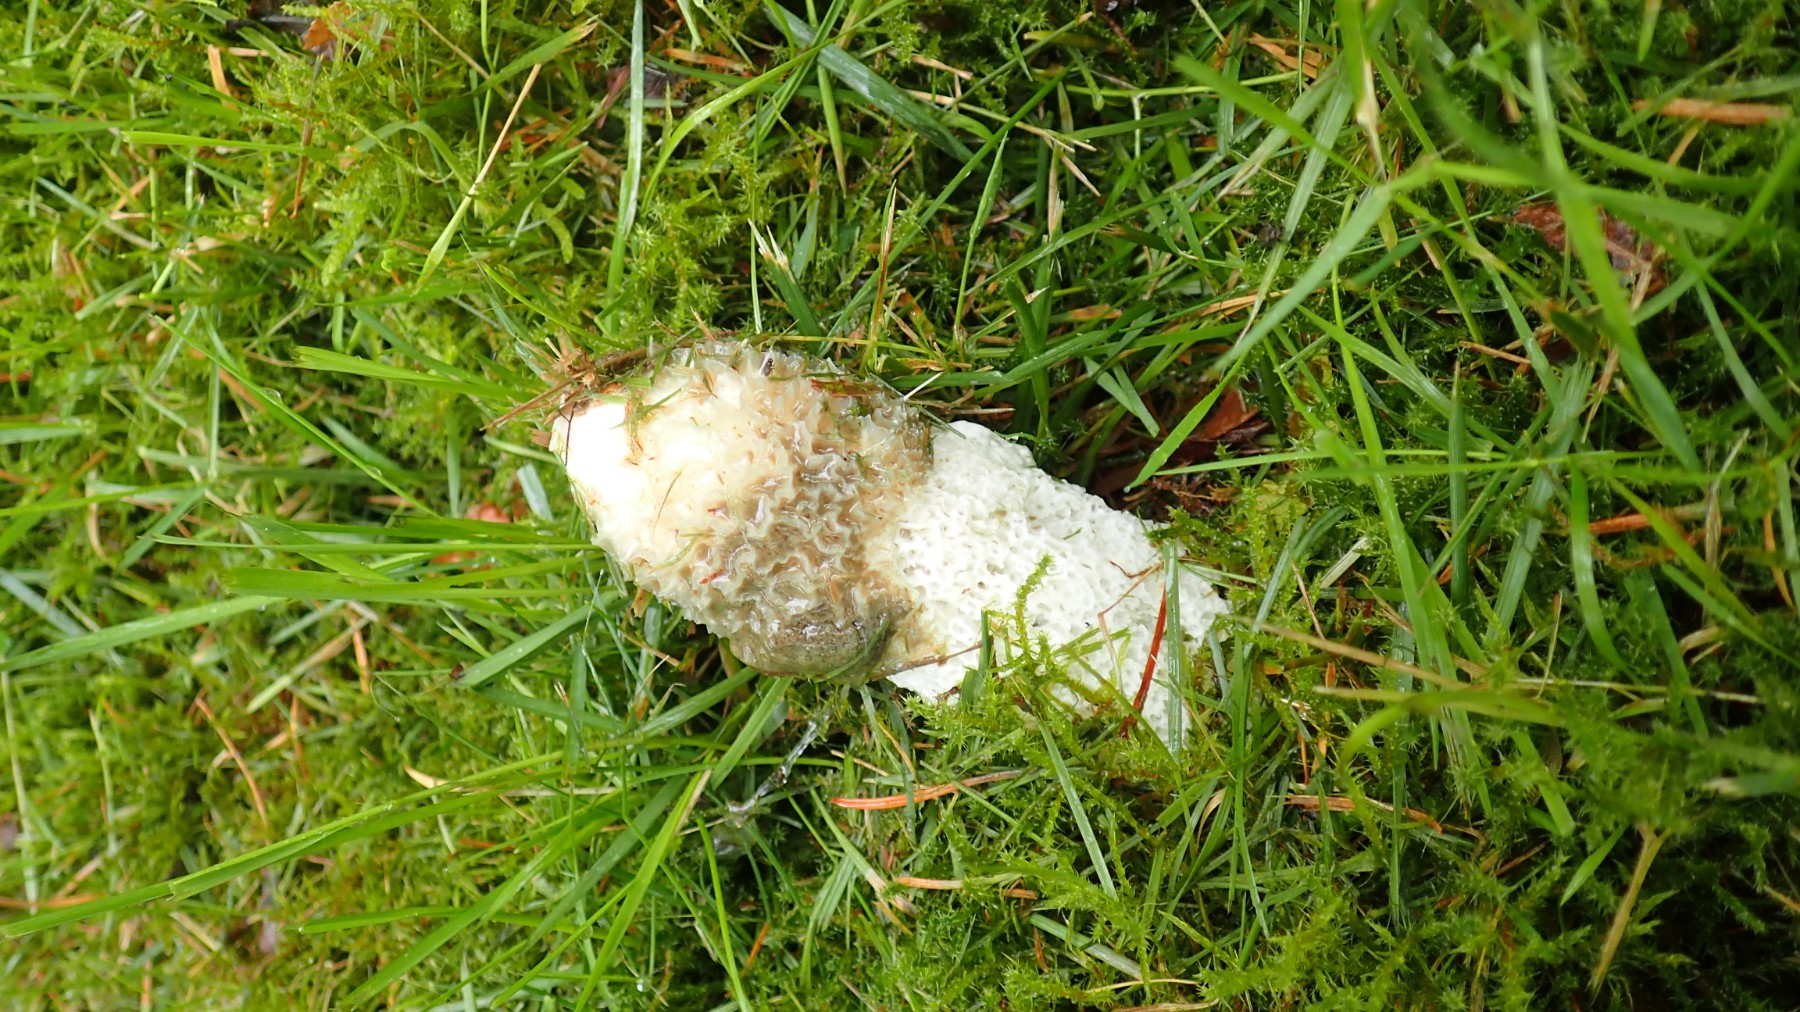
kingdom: Fungi
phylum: Basidiomycota
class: Agaricomycetes
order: Phallales
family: Phallaceae
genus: Phallus
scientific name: Phallus impudicus
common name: almindelig stinksvamp
